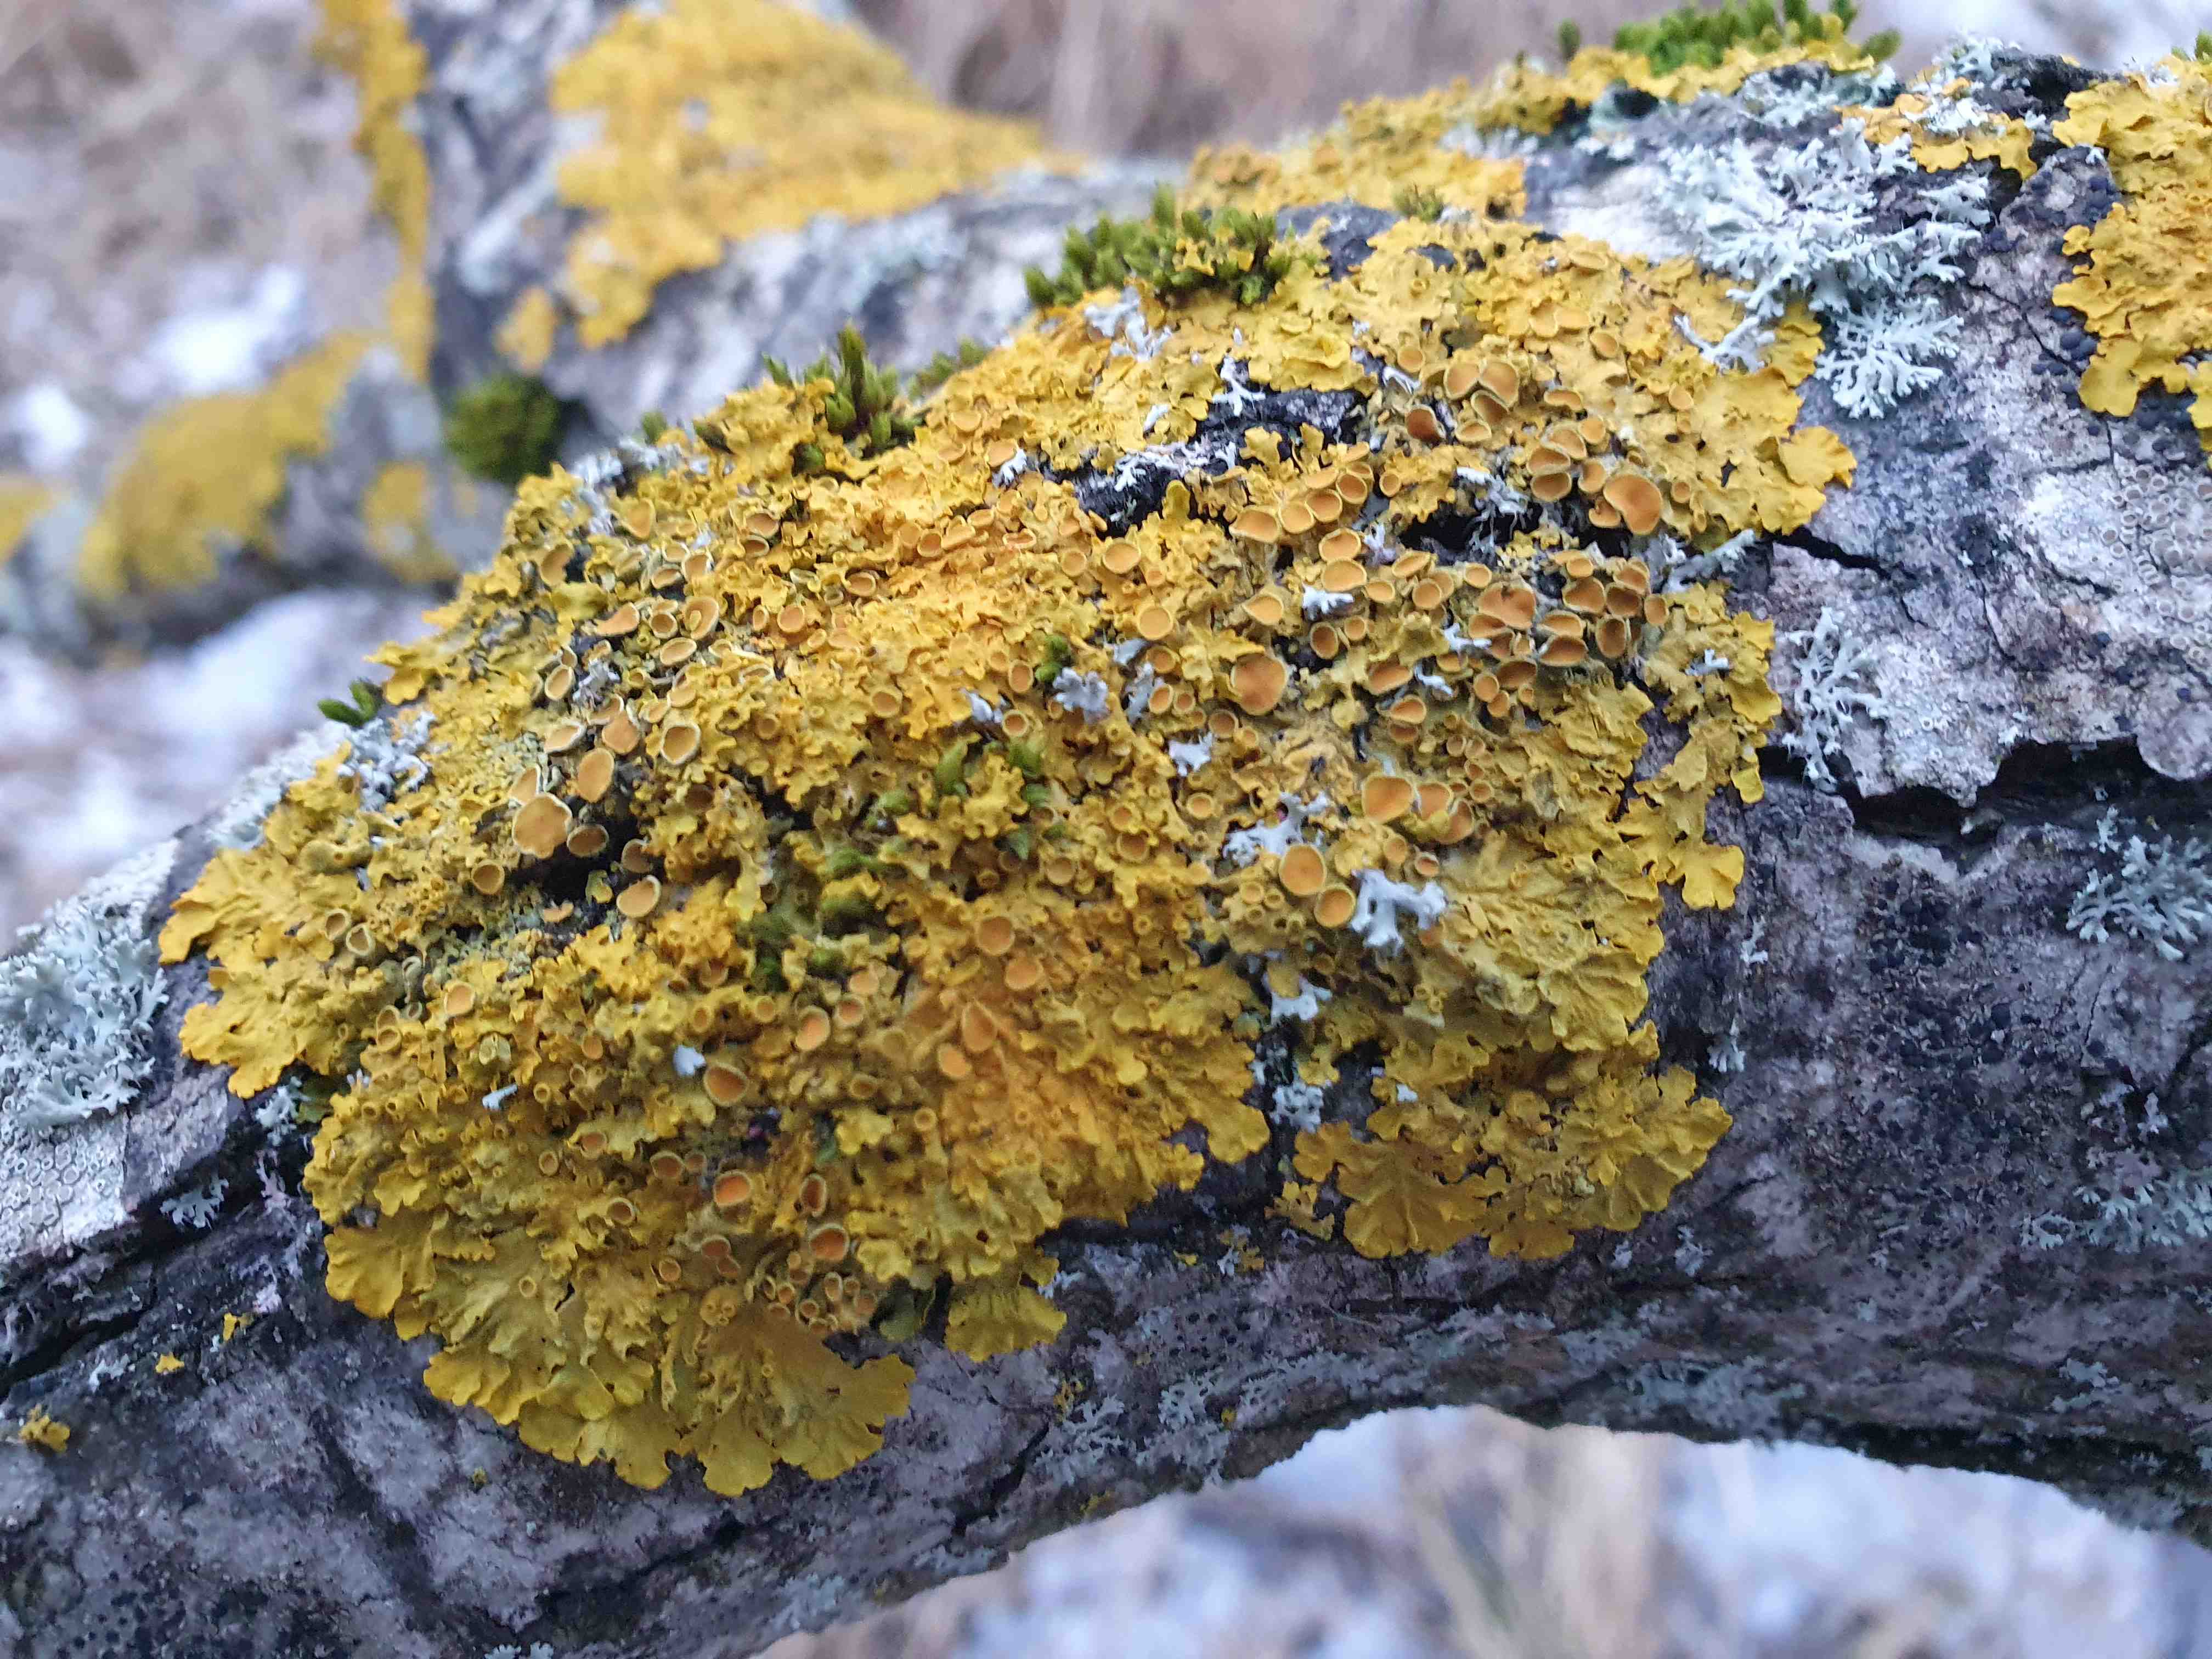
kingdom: Fungi
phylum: Ascomycota
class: Lecanoromycetes
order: Teloschistales
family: Teloschistaceae
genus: Xanthoria
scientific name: Xanthoria parietina
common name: almindelig væggelav
